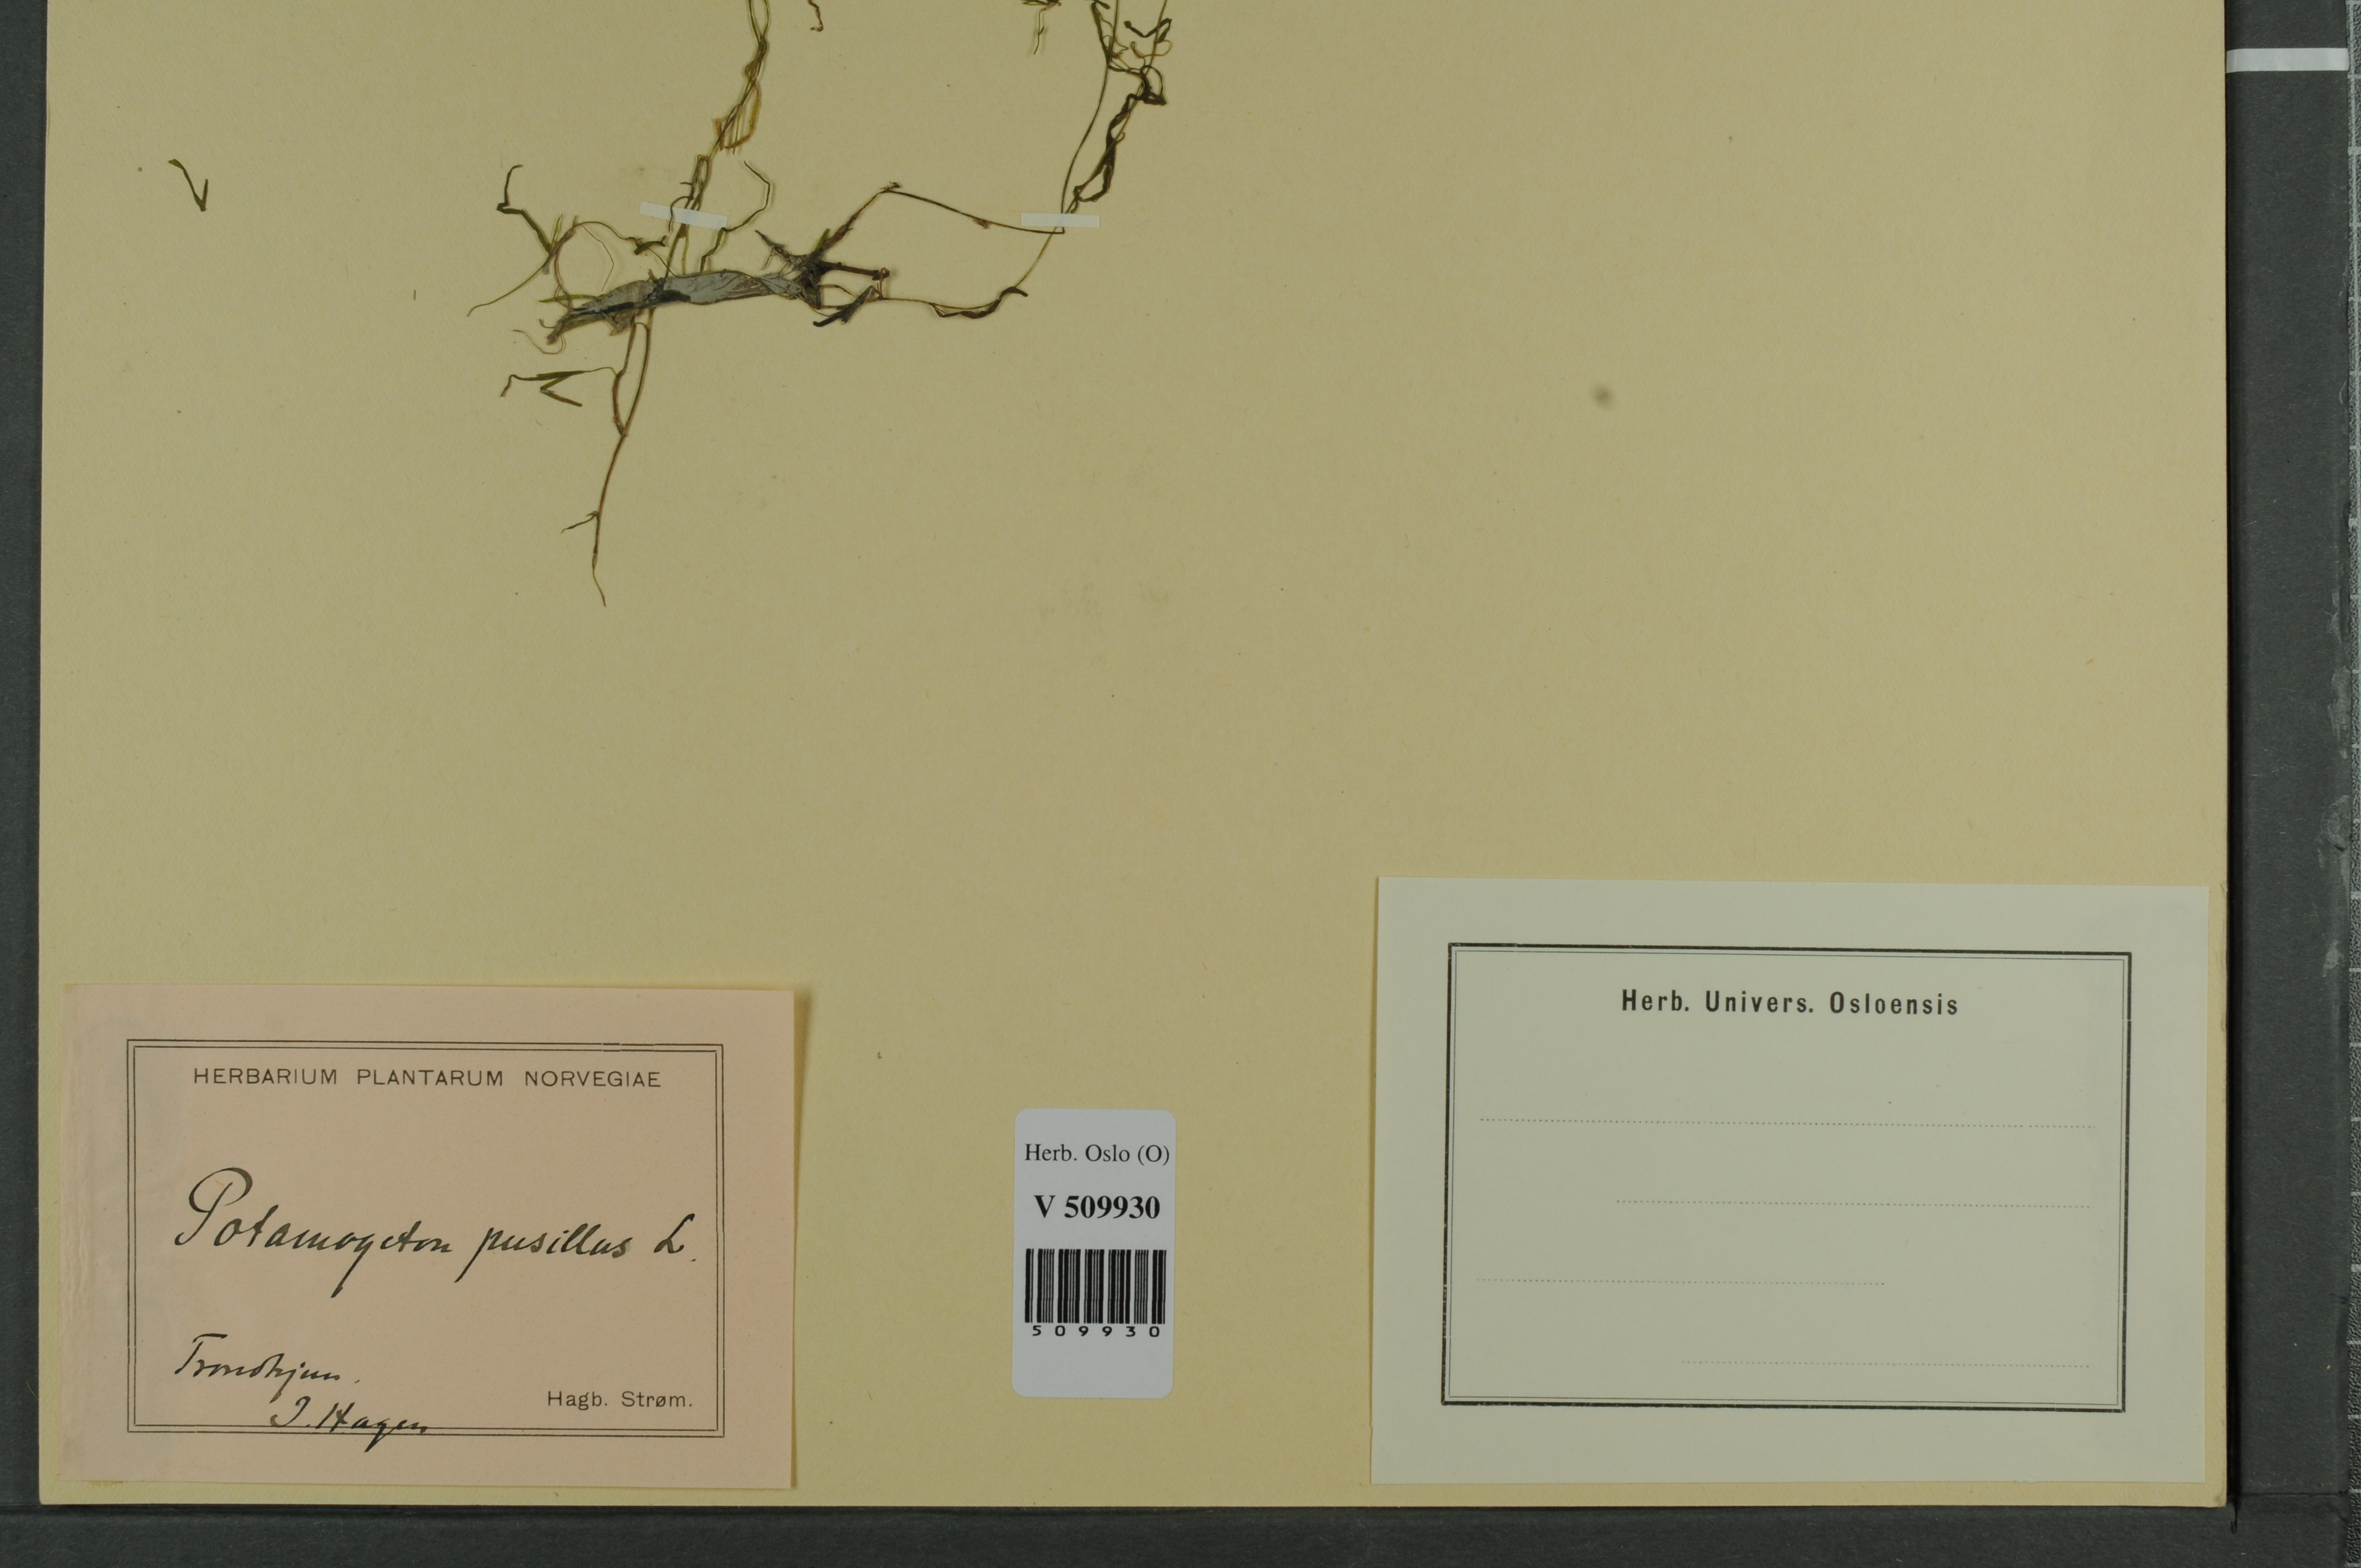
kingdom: Plantae
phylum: Tracheophyta
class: Liliopsida
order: Alismatales
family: Potamogetonaceae
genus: Potamogeton
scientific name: Potamogeton berchtoldii
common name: Small pondweed
